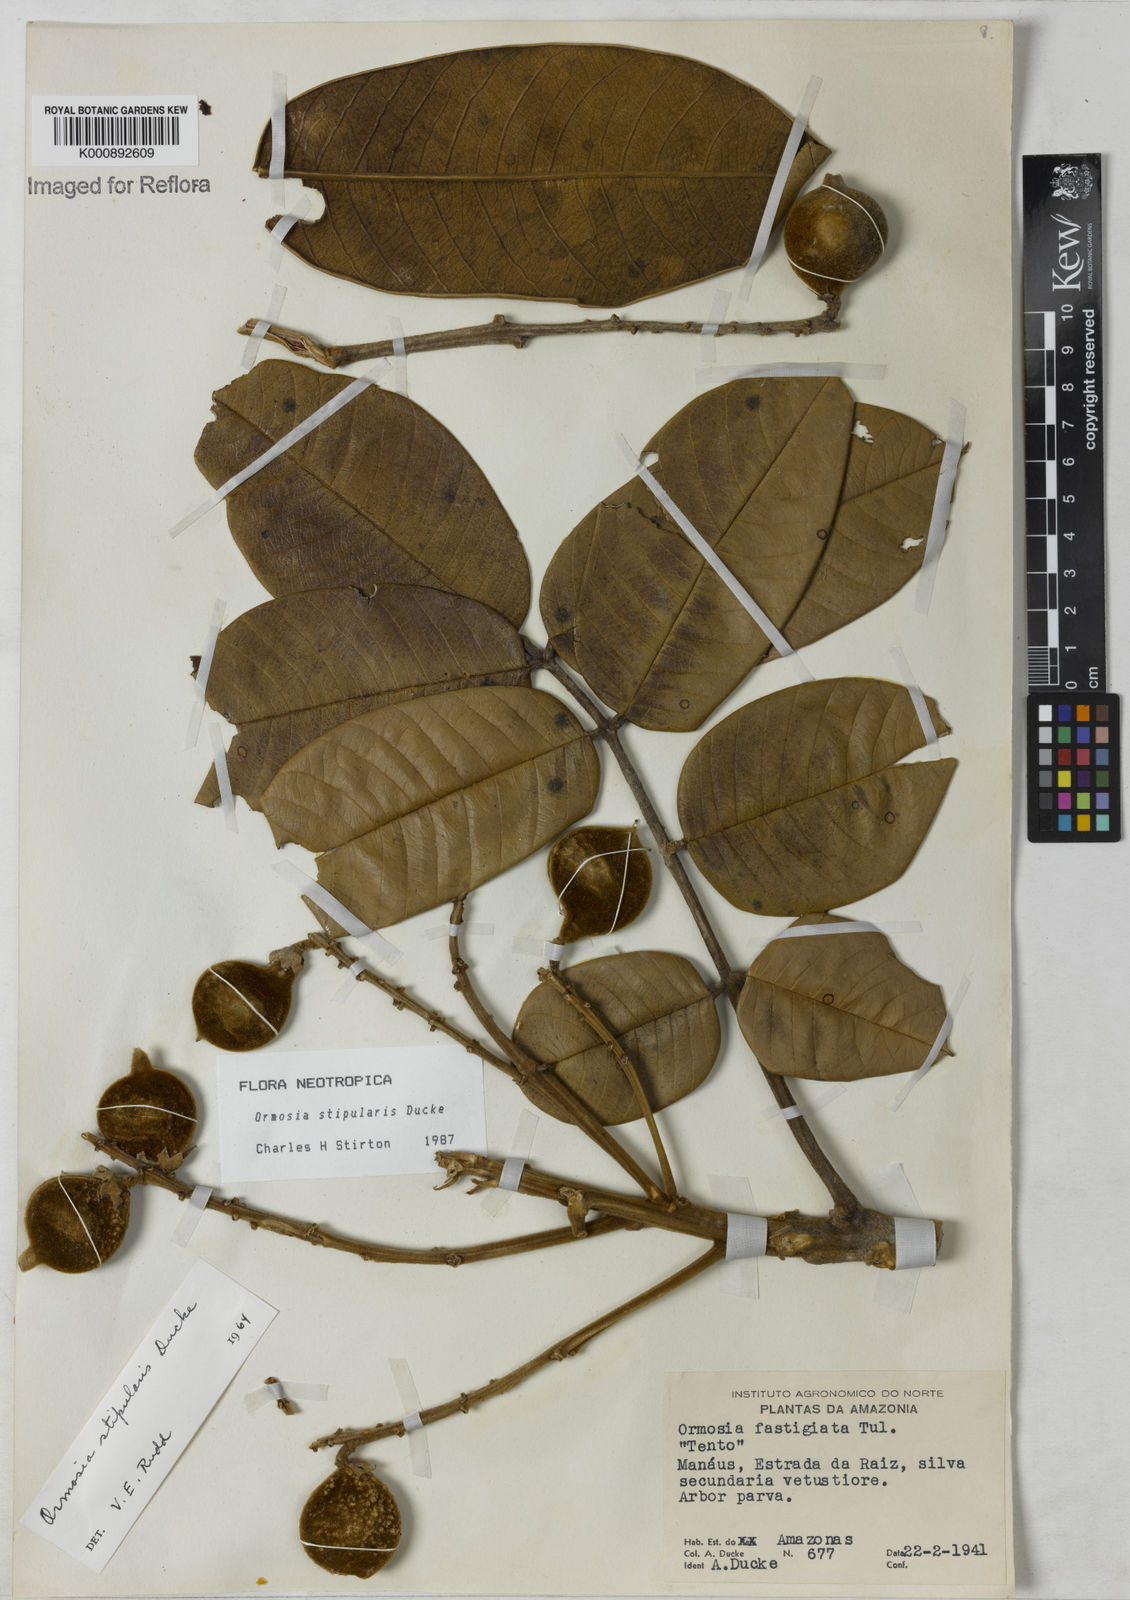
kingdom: Plantae
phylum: Tracheophyta
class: Magnoliopsida
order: Fabales
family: Fabaceae
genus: Ormosia
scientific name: Ormosia stipularis
